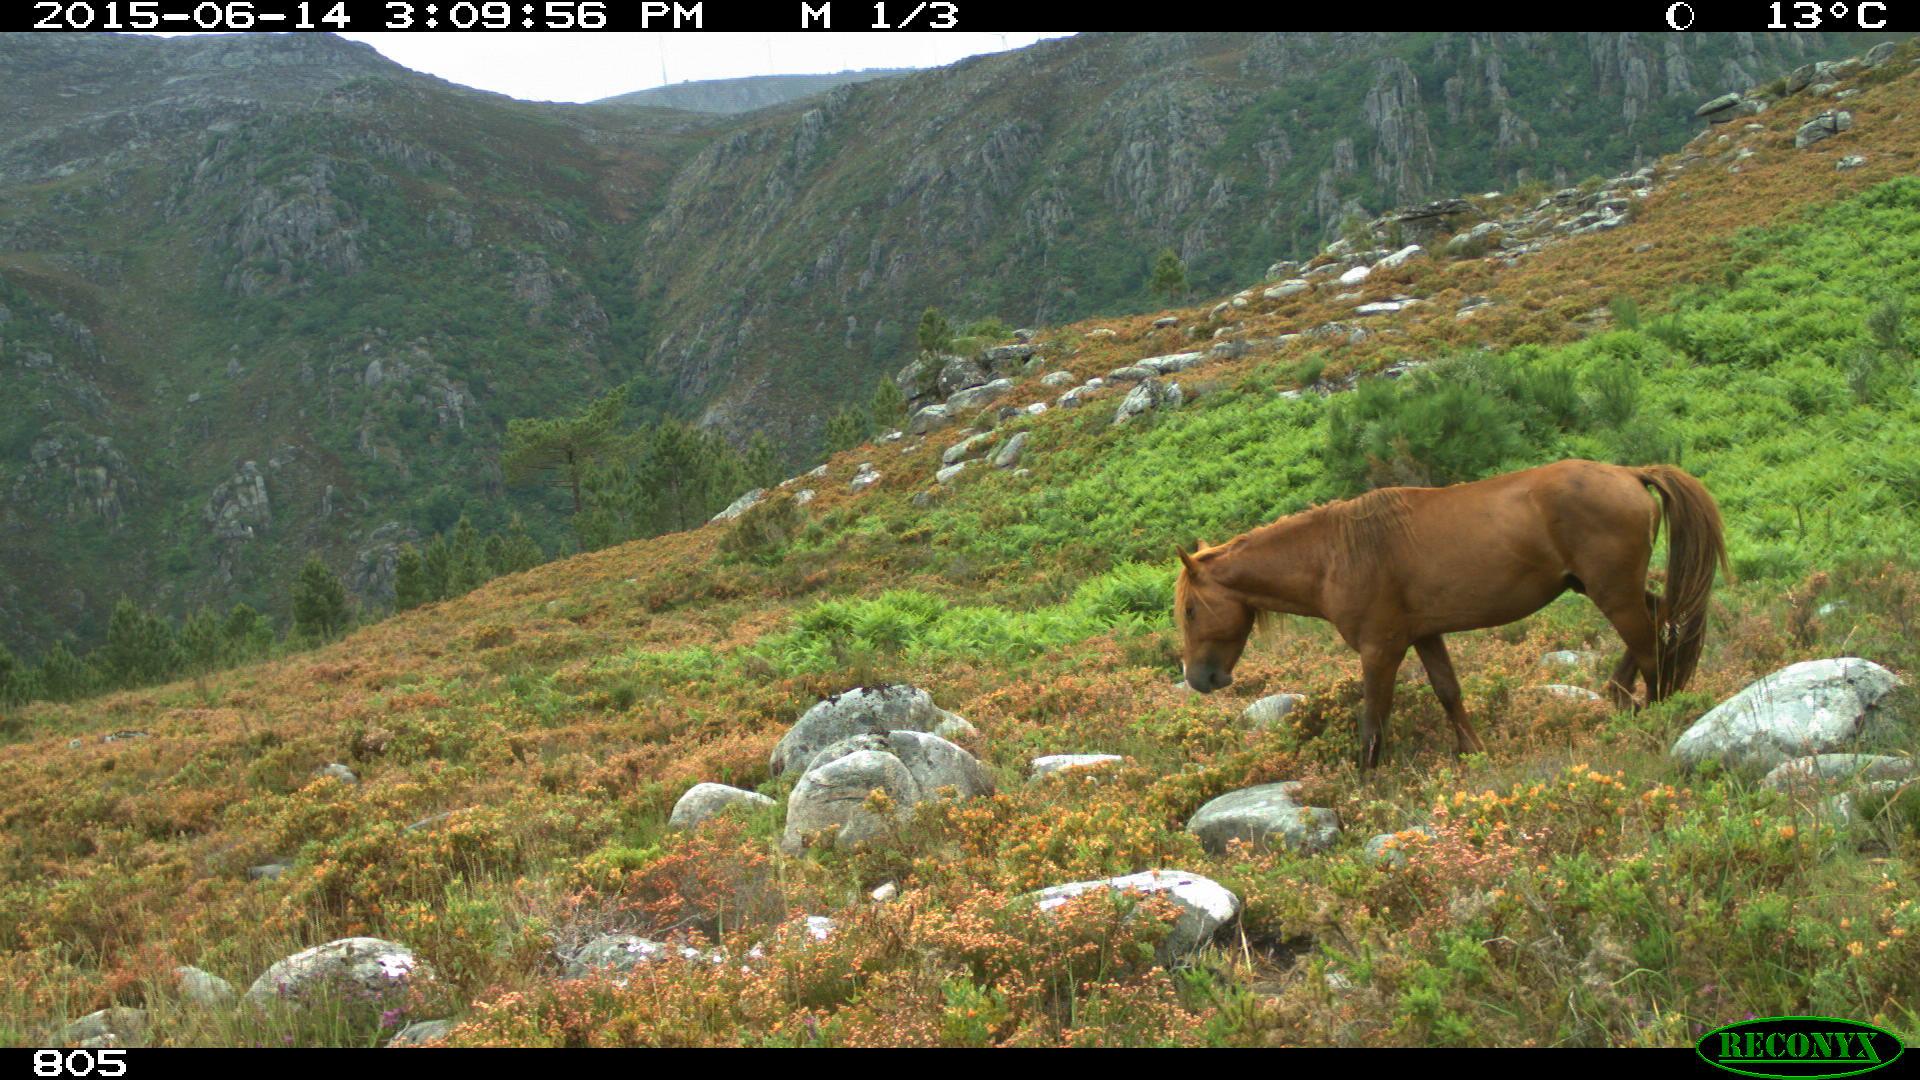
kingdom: Animalia
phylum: Chordata
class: Mammalia
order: Perissodactyla
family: Equidae
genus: Equus
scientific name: Equus caballus
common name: Horse
